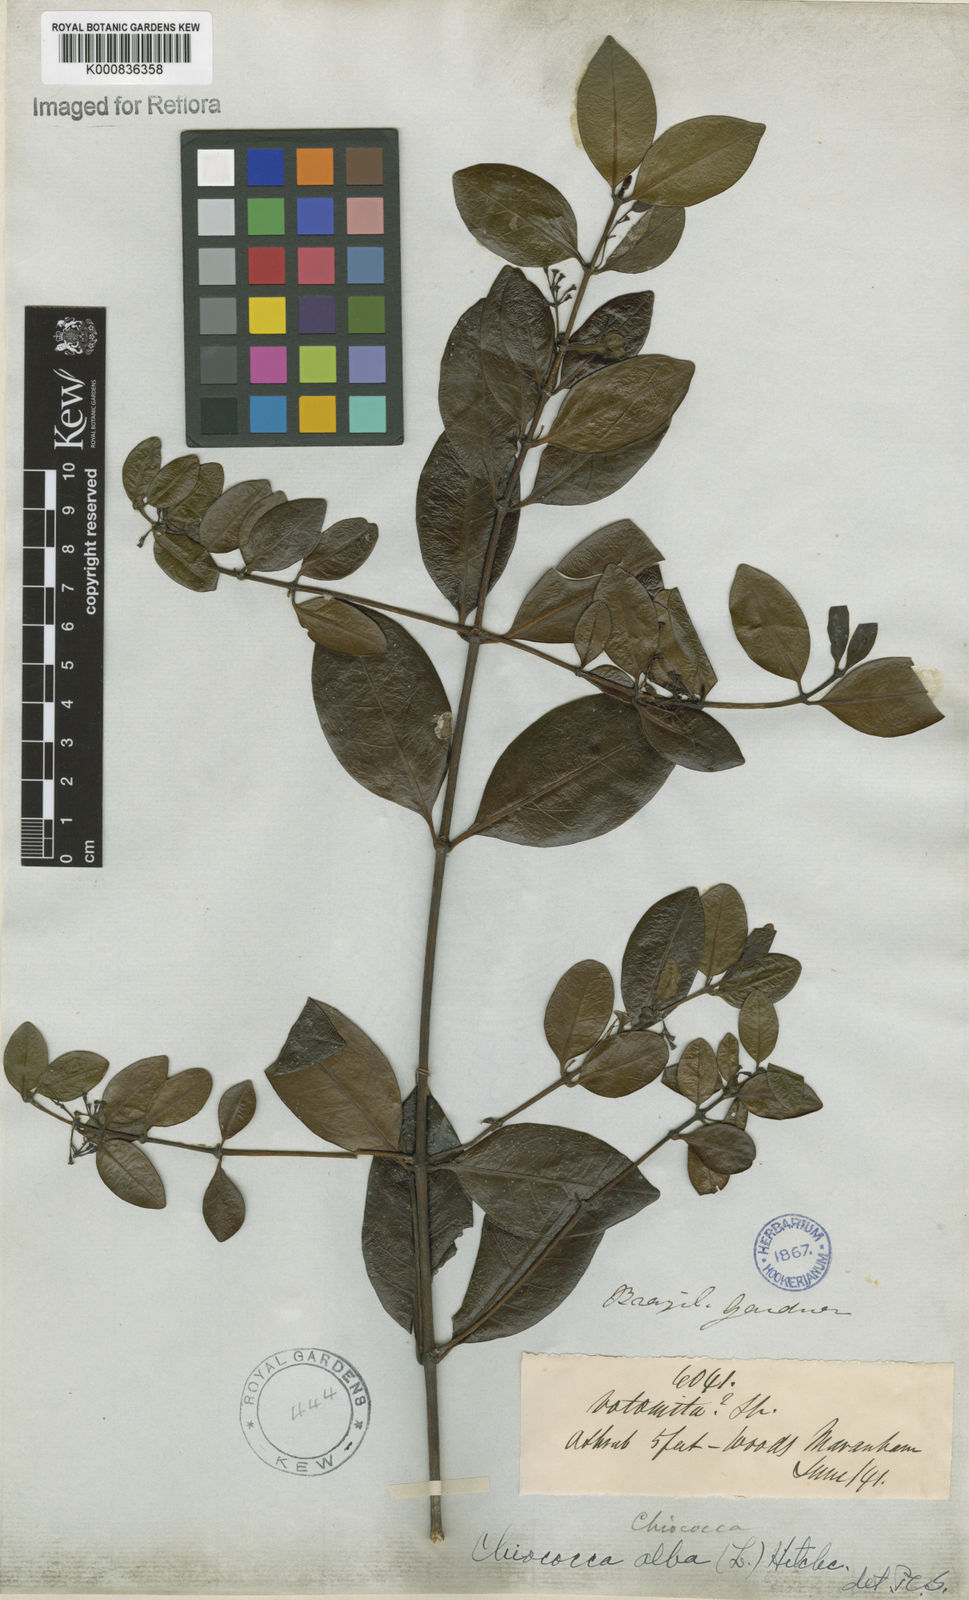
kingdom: Plantae
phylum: Tracheophyta
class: Magnoliopsida
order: Gentianales
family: Rubiaceae
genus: Chiococca
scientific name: Chiococca alba
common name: Snowberry
